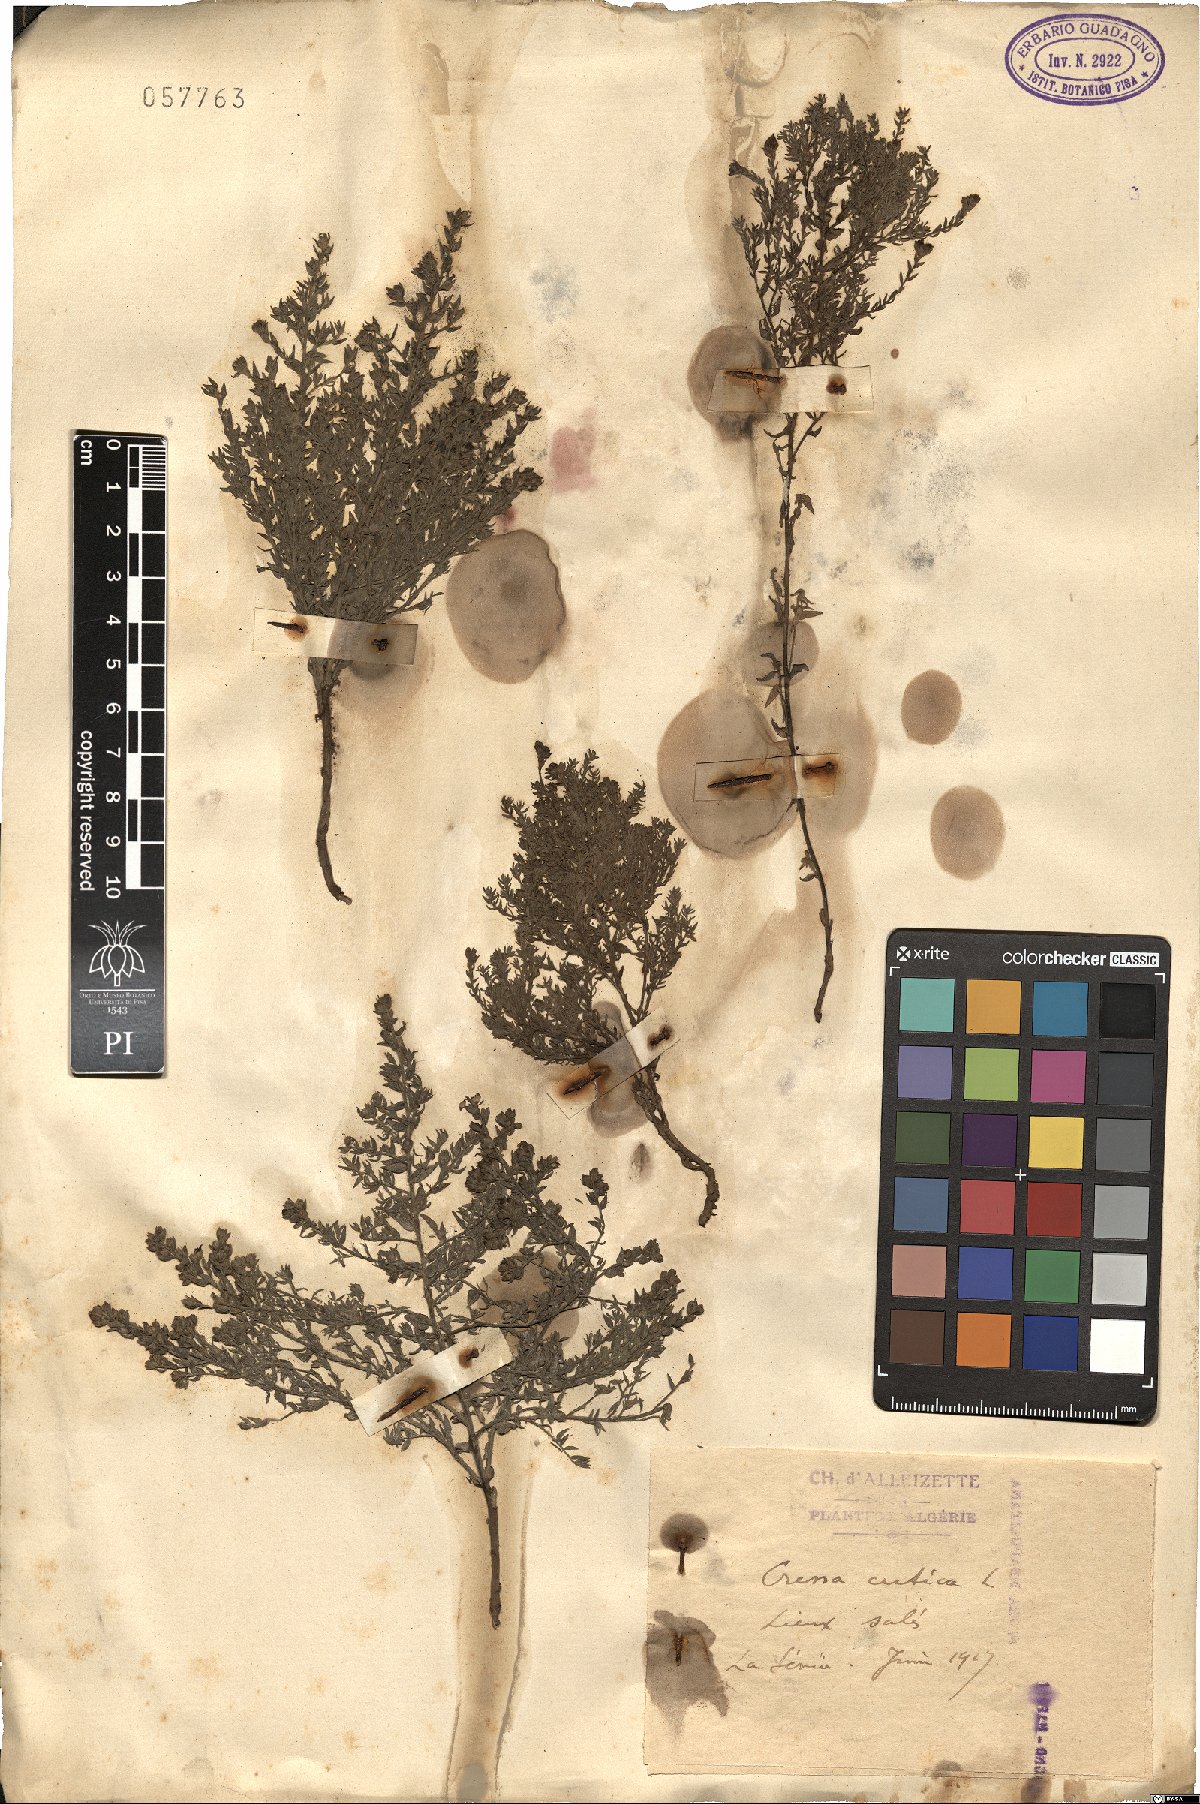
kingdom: Plantae
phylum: Tracheophyta
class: Magnoliopsida
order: Solanales
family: Convolvulaceae
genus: Cressa
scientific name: Cressa cretica
